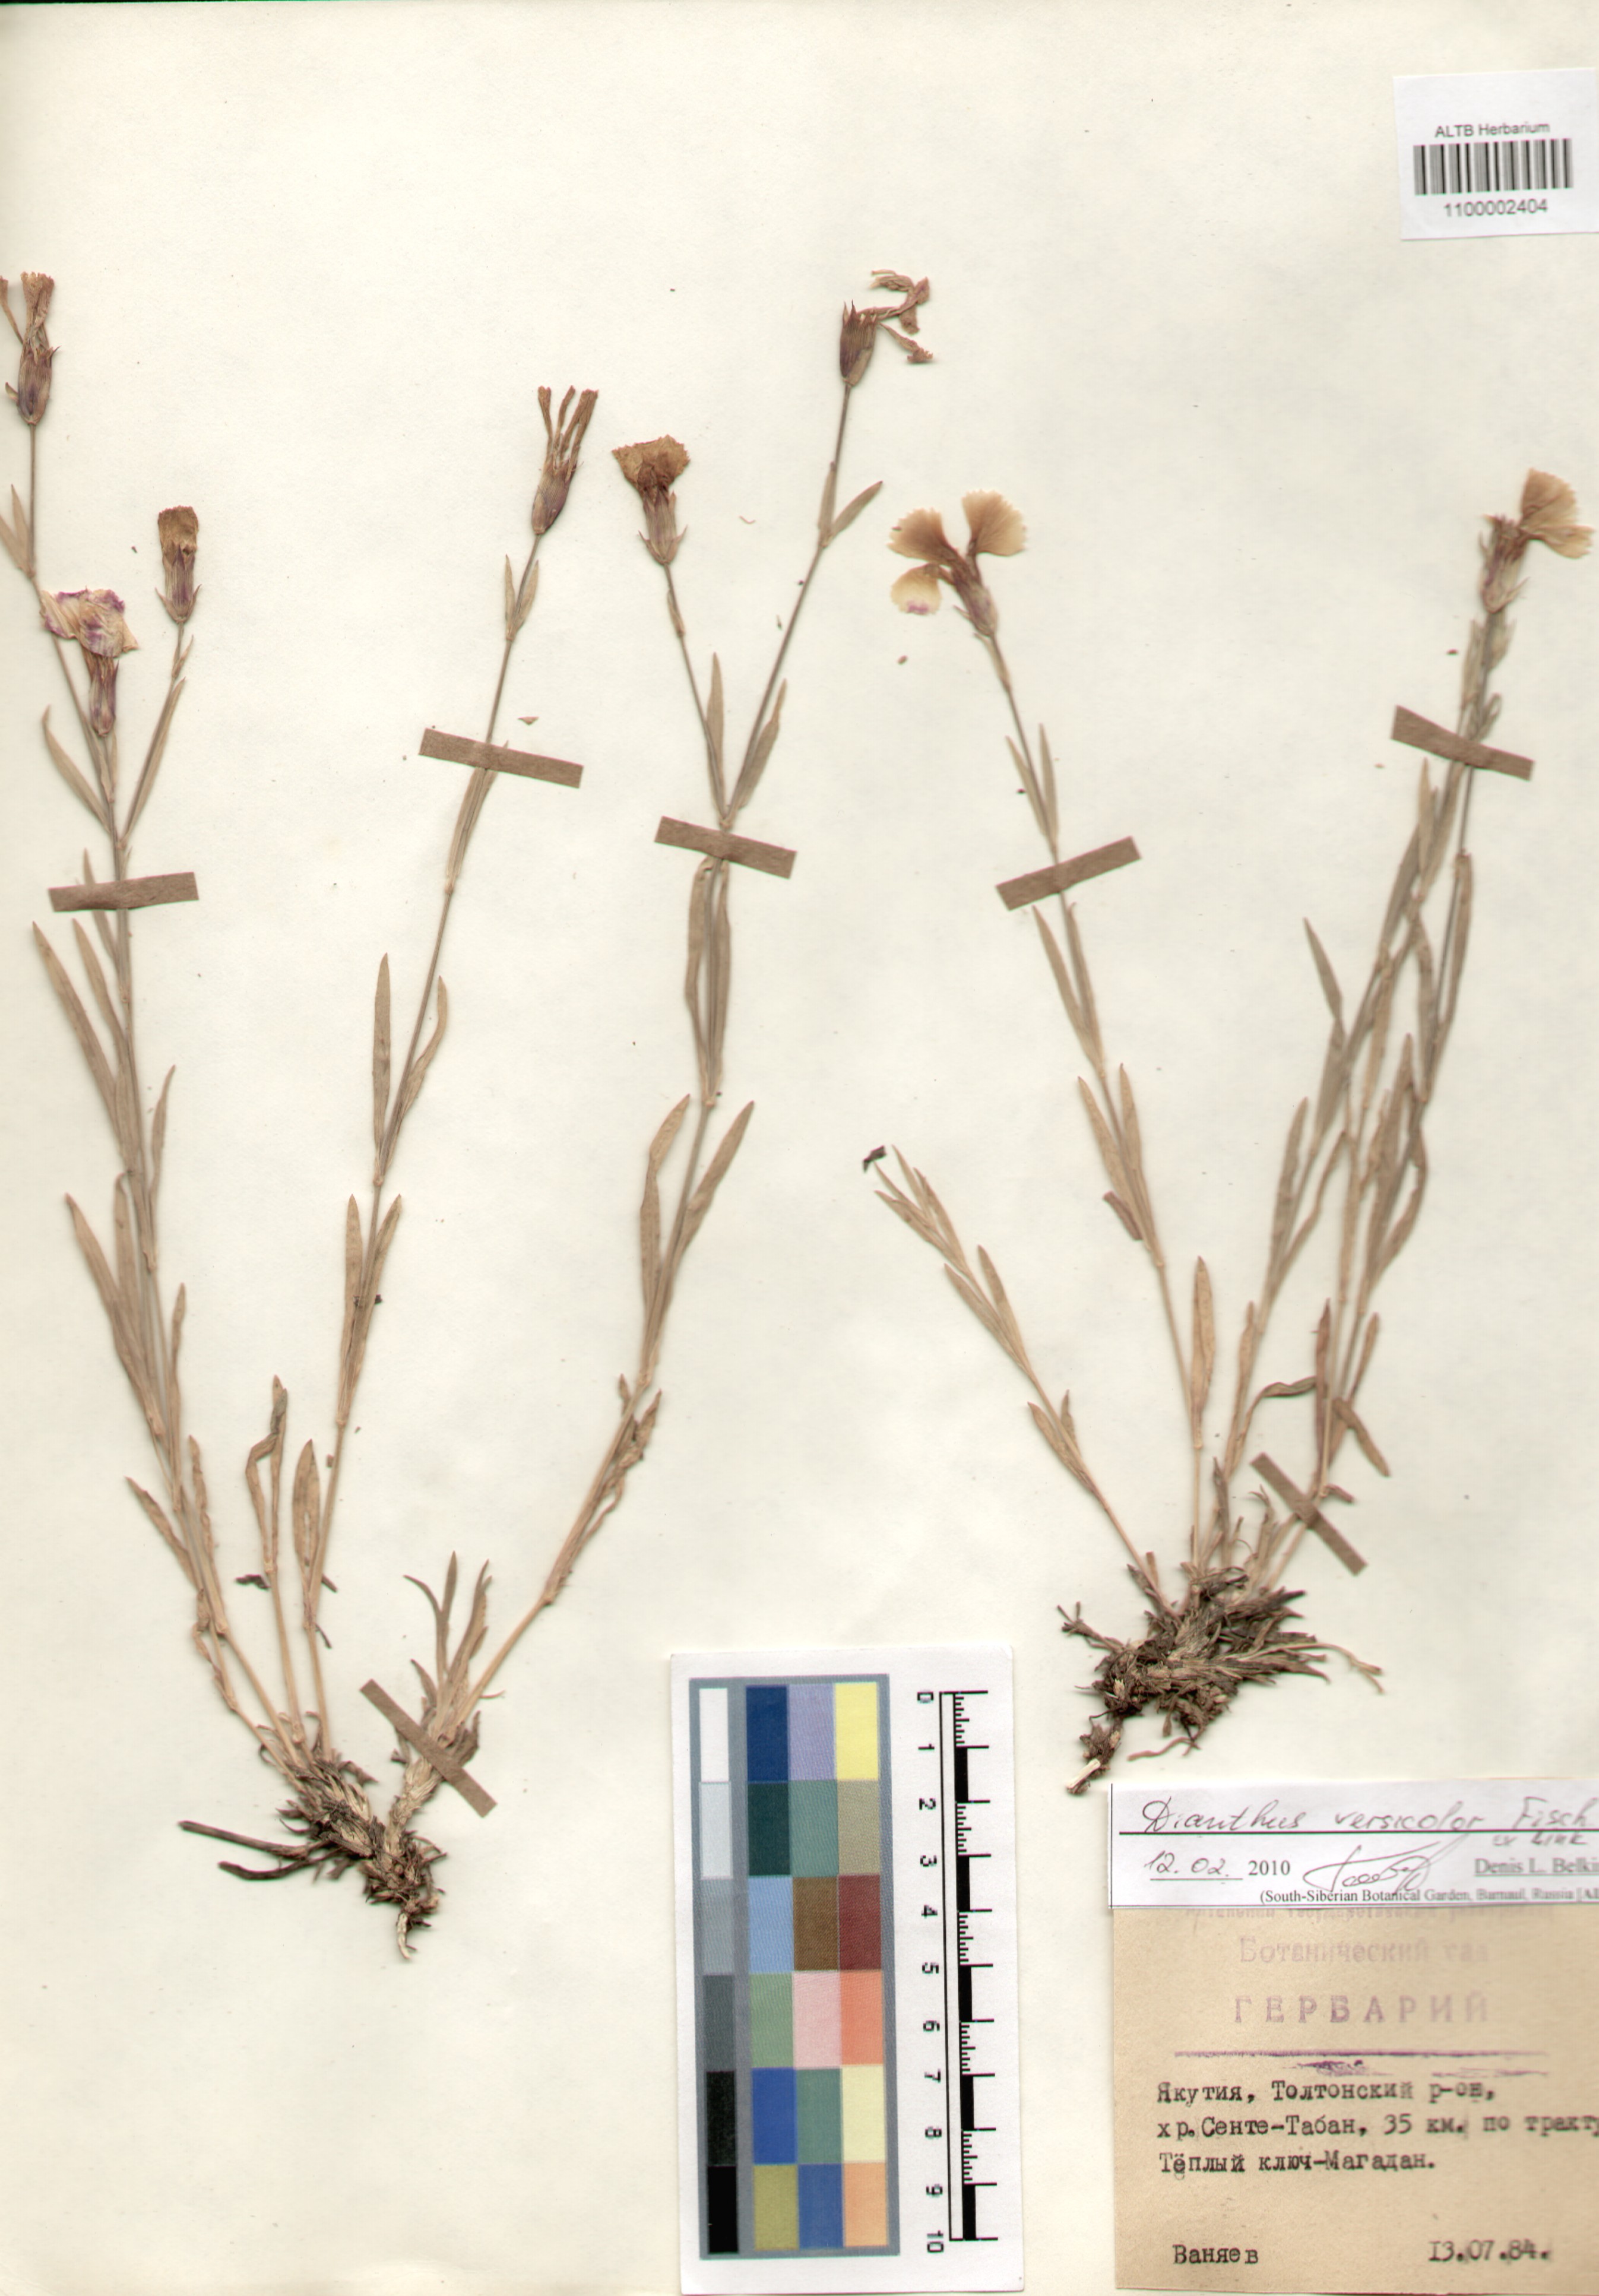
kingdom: Plantae
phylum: Tracheophyta
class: Magnoliopsida
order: Caryophyllales
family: Caryophyllaceae
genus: Dianthus
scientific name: Dianthus chinensis
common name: Rainbow pink
